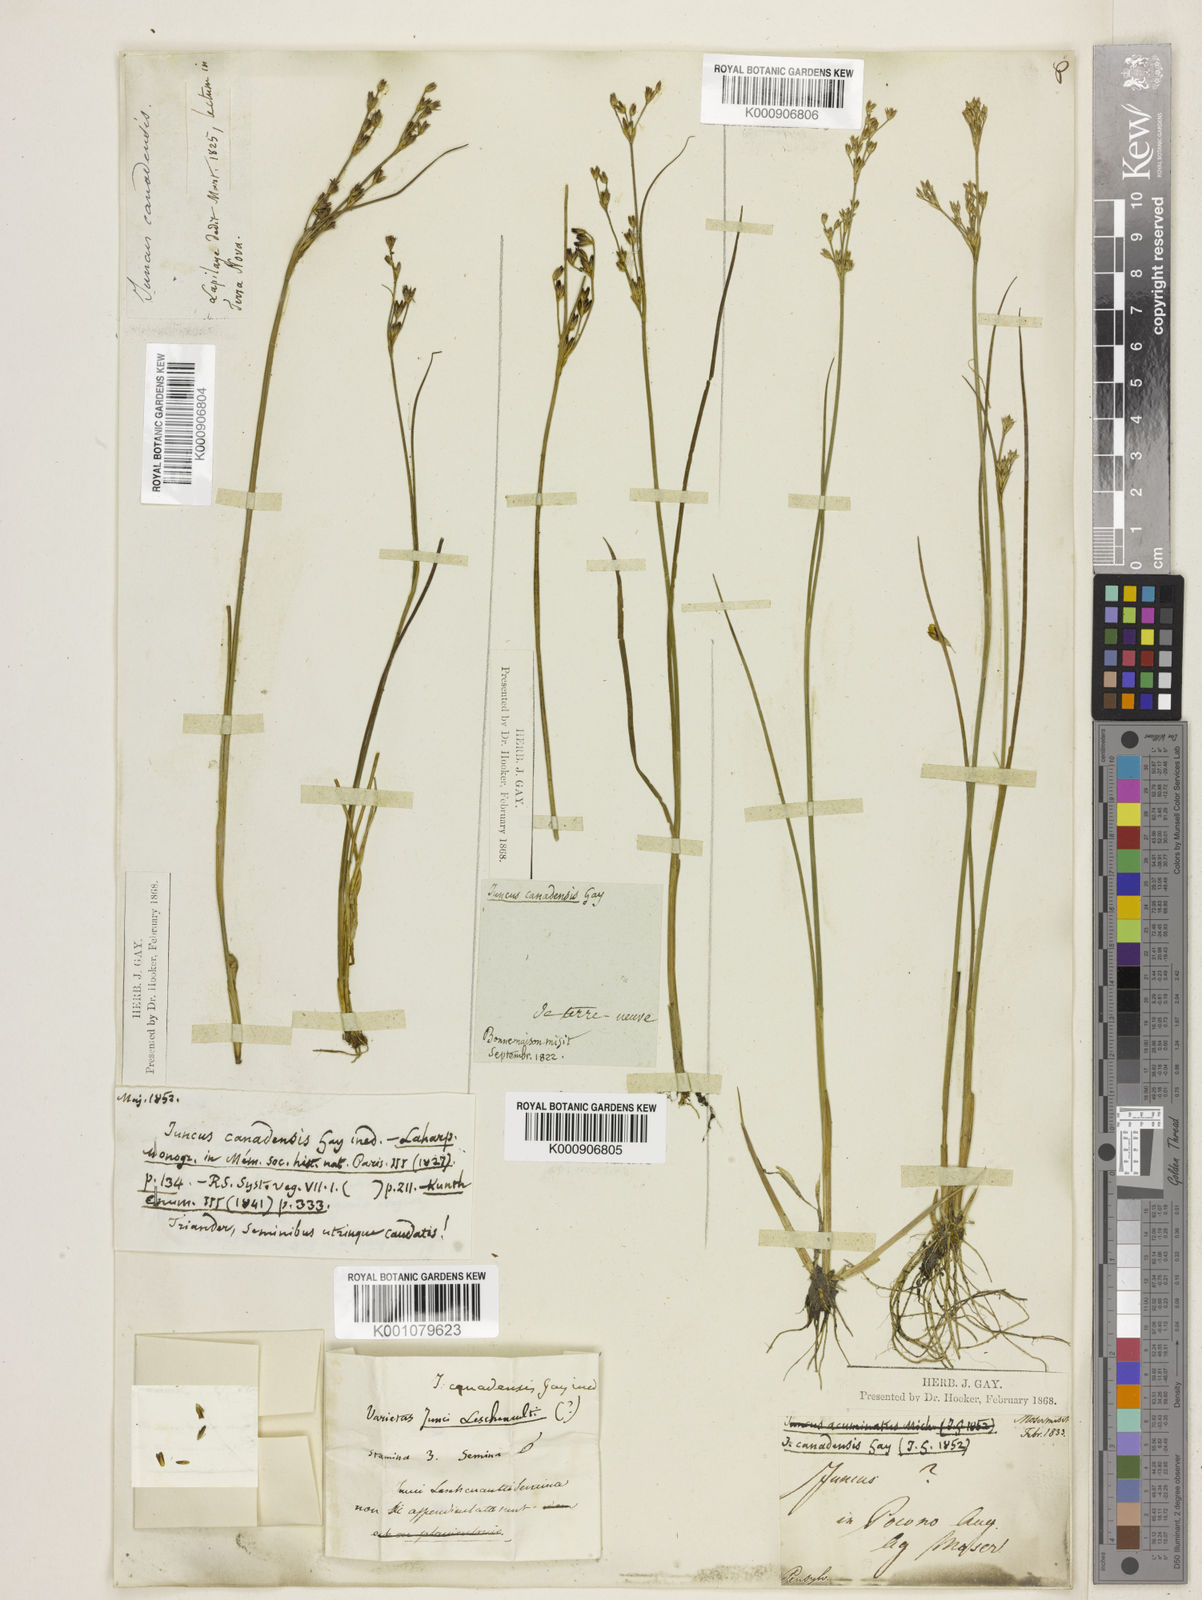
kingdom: Plantae
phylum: Tracheophyta
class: Liliopsida
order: Poales
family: Juncaceae
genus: Juncus
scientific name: Juncus
